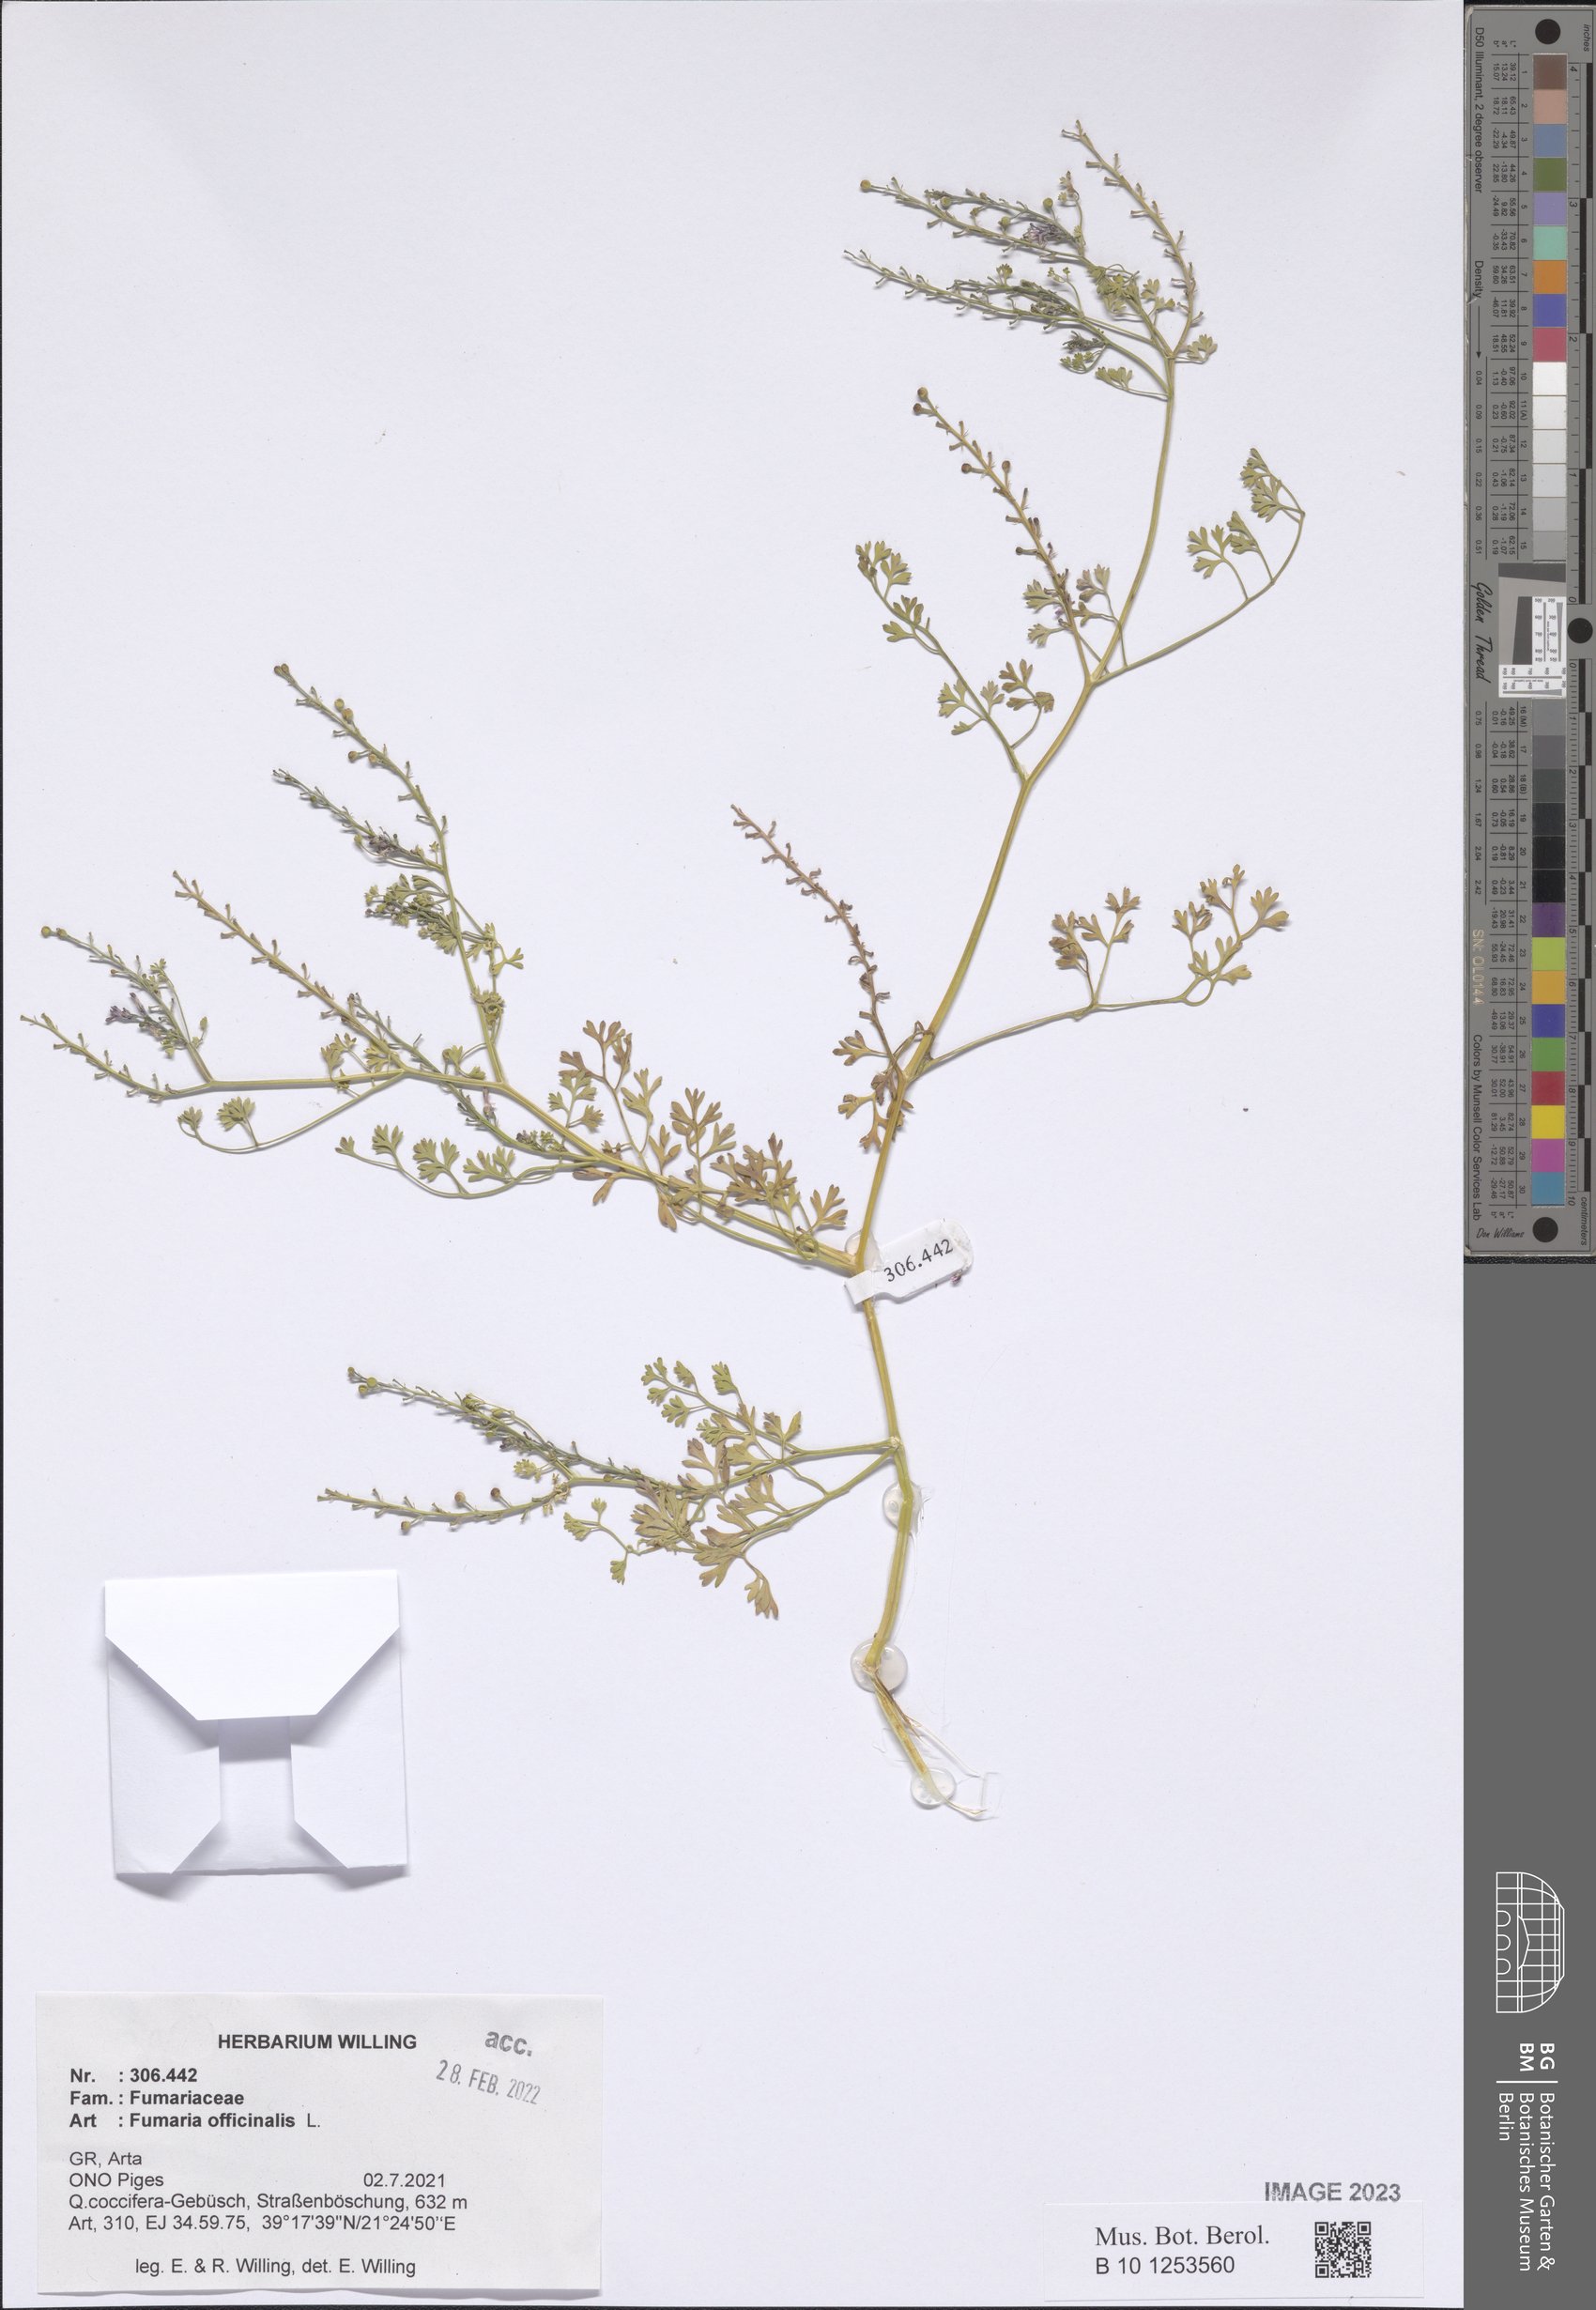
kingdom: Plantae
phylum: Tracheophyta
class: Magnoliopsida
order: Ranunculales
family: Papaveraceae
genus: Fumaria
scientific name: Fumaria officinalis
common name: Common fumitory
